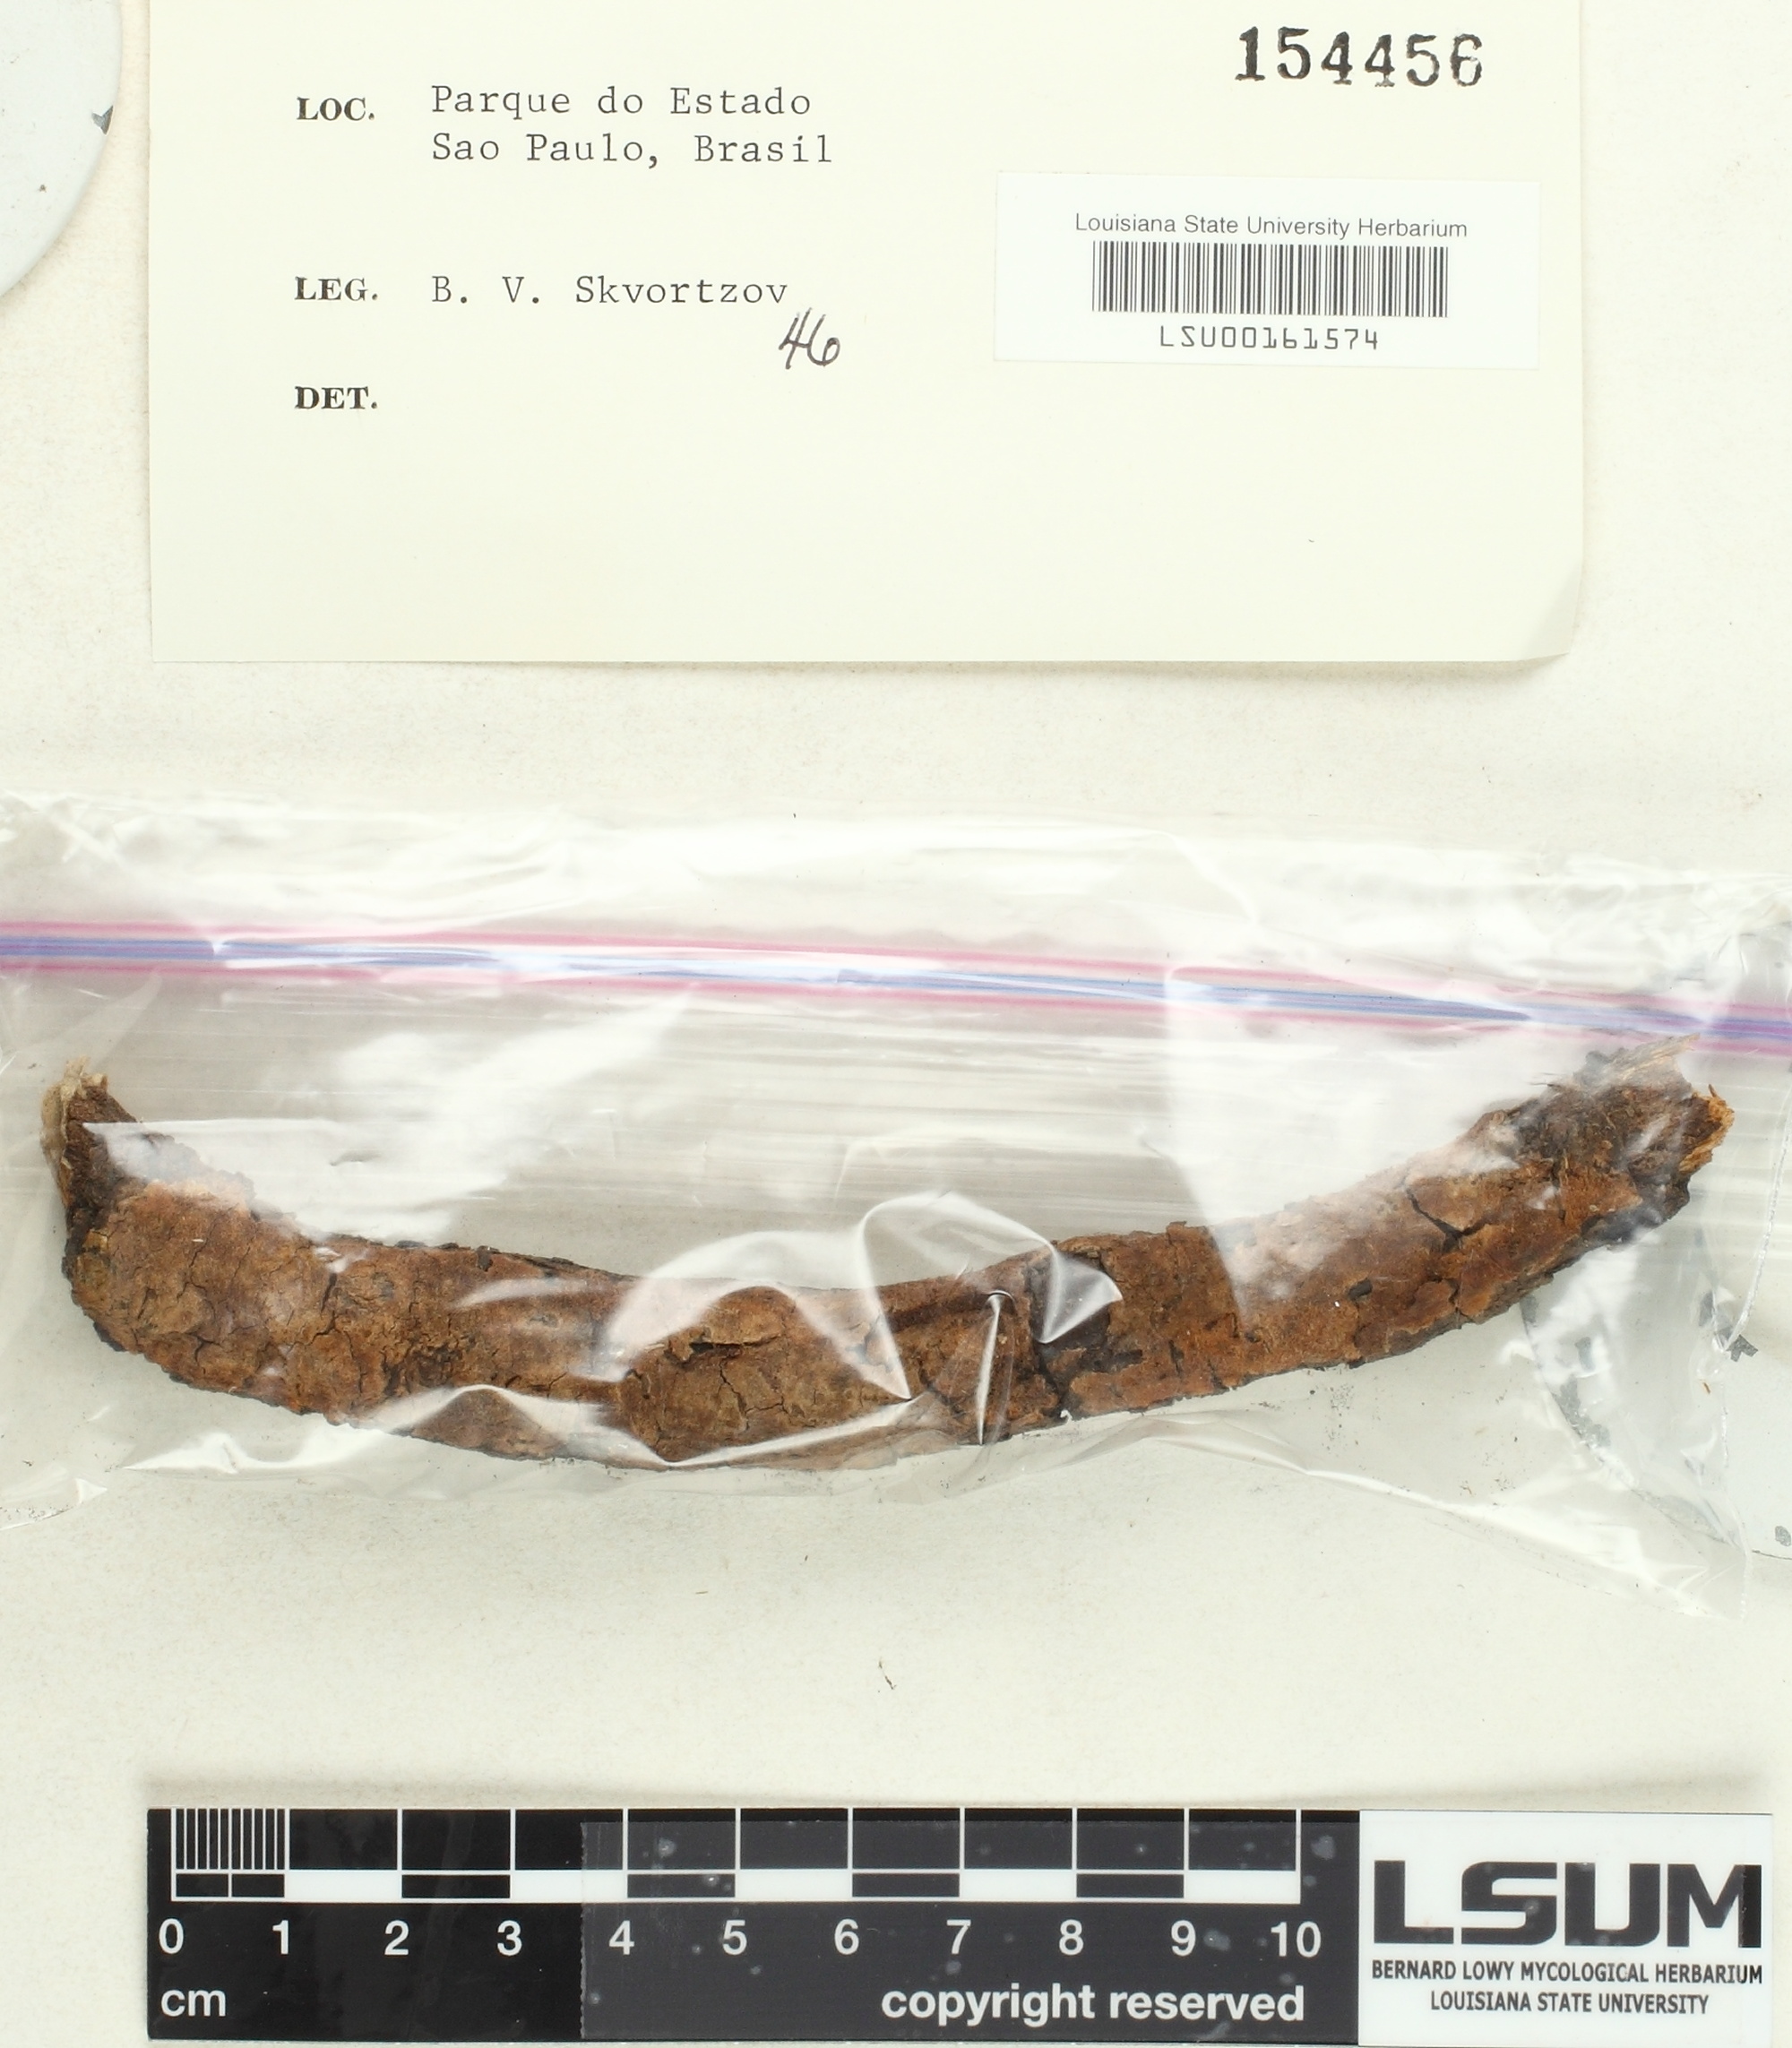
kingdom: Fungi
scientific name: Fungi
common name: Fungi
